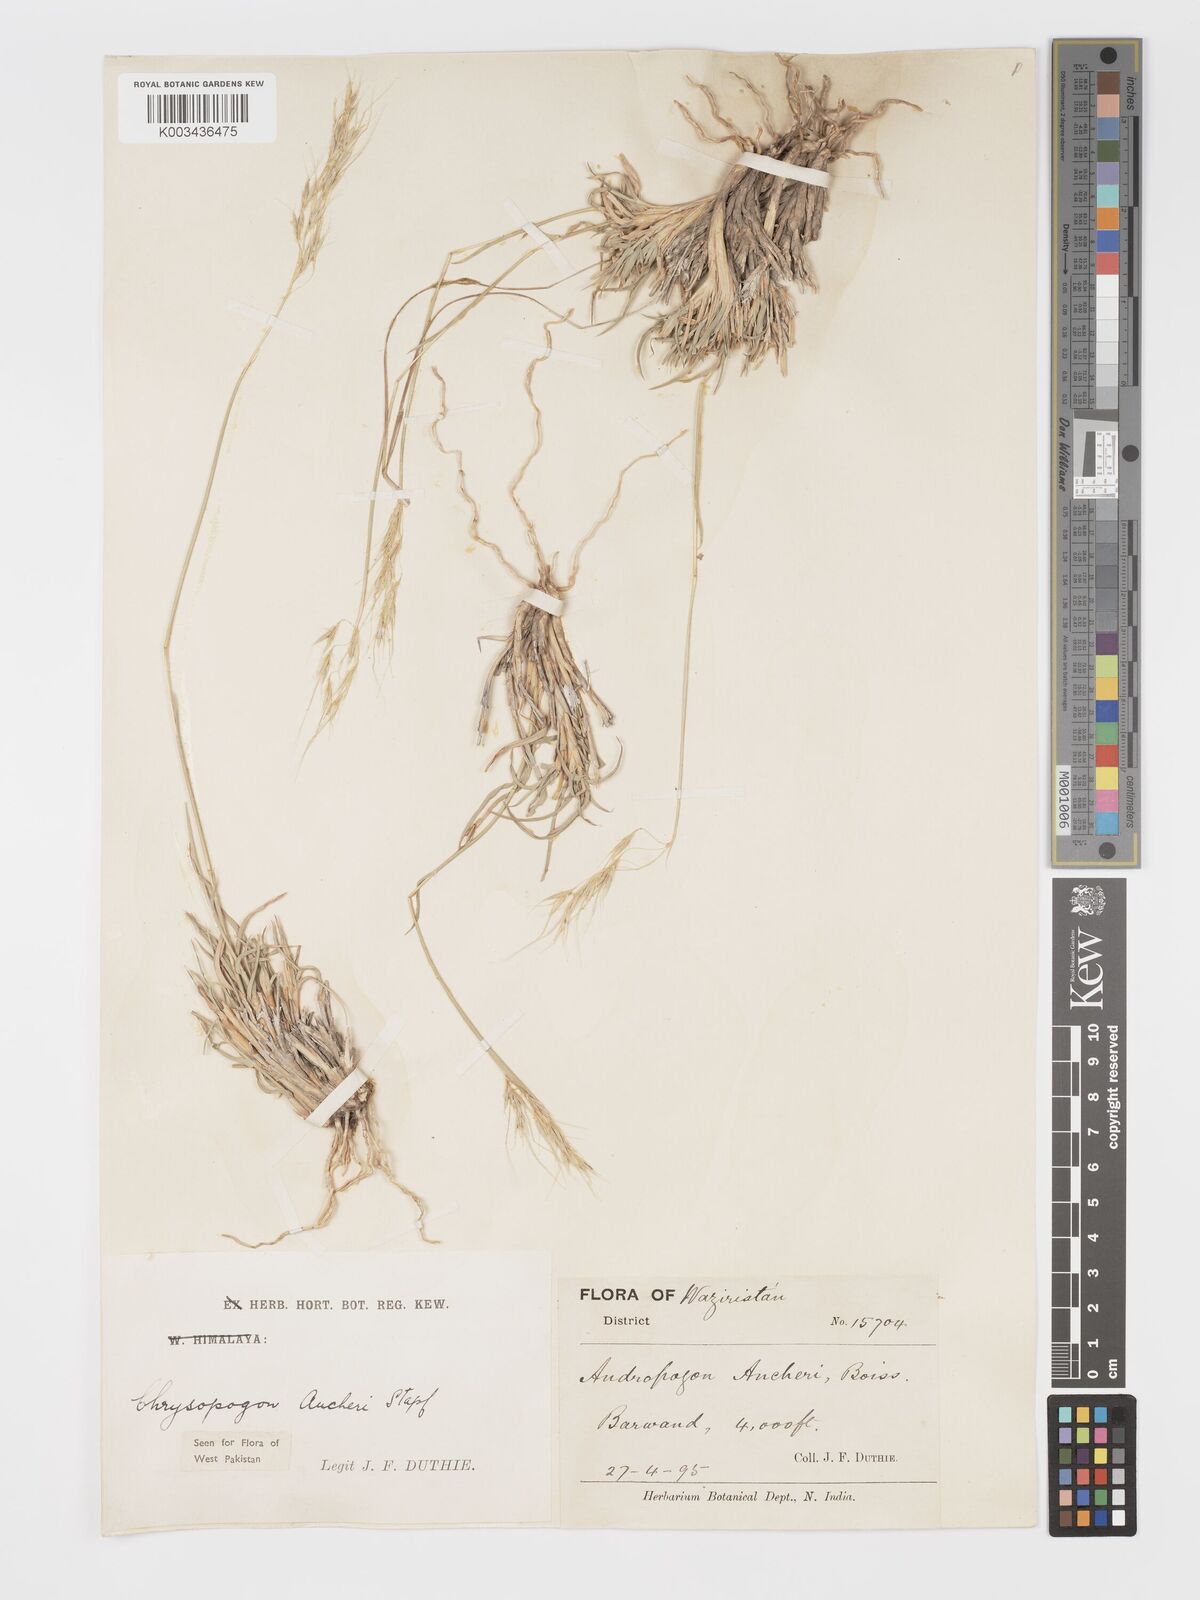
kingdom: Plantae
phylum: Tracheophyta
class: Liliopsida
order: Poales
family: Poaceae
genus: Chrysopogon
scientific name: Chrysopogon aucheri
